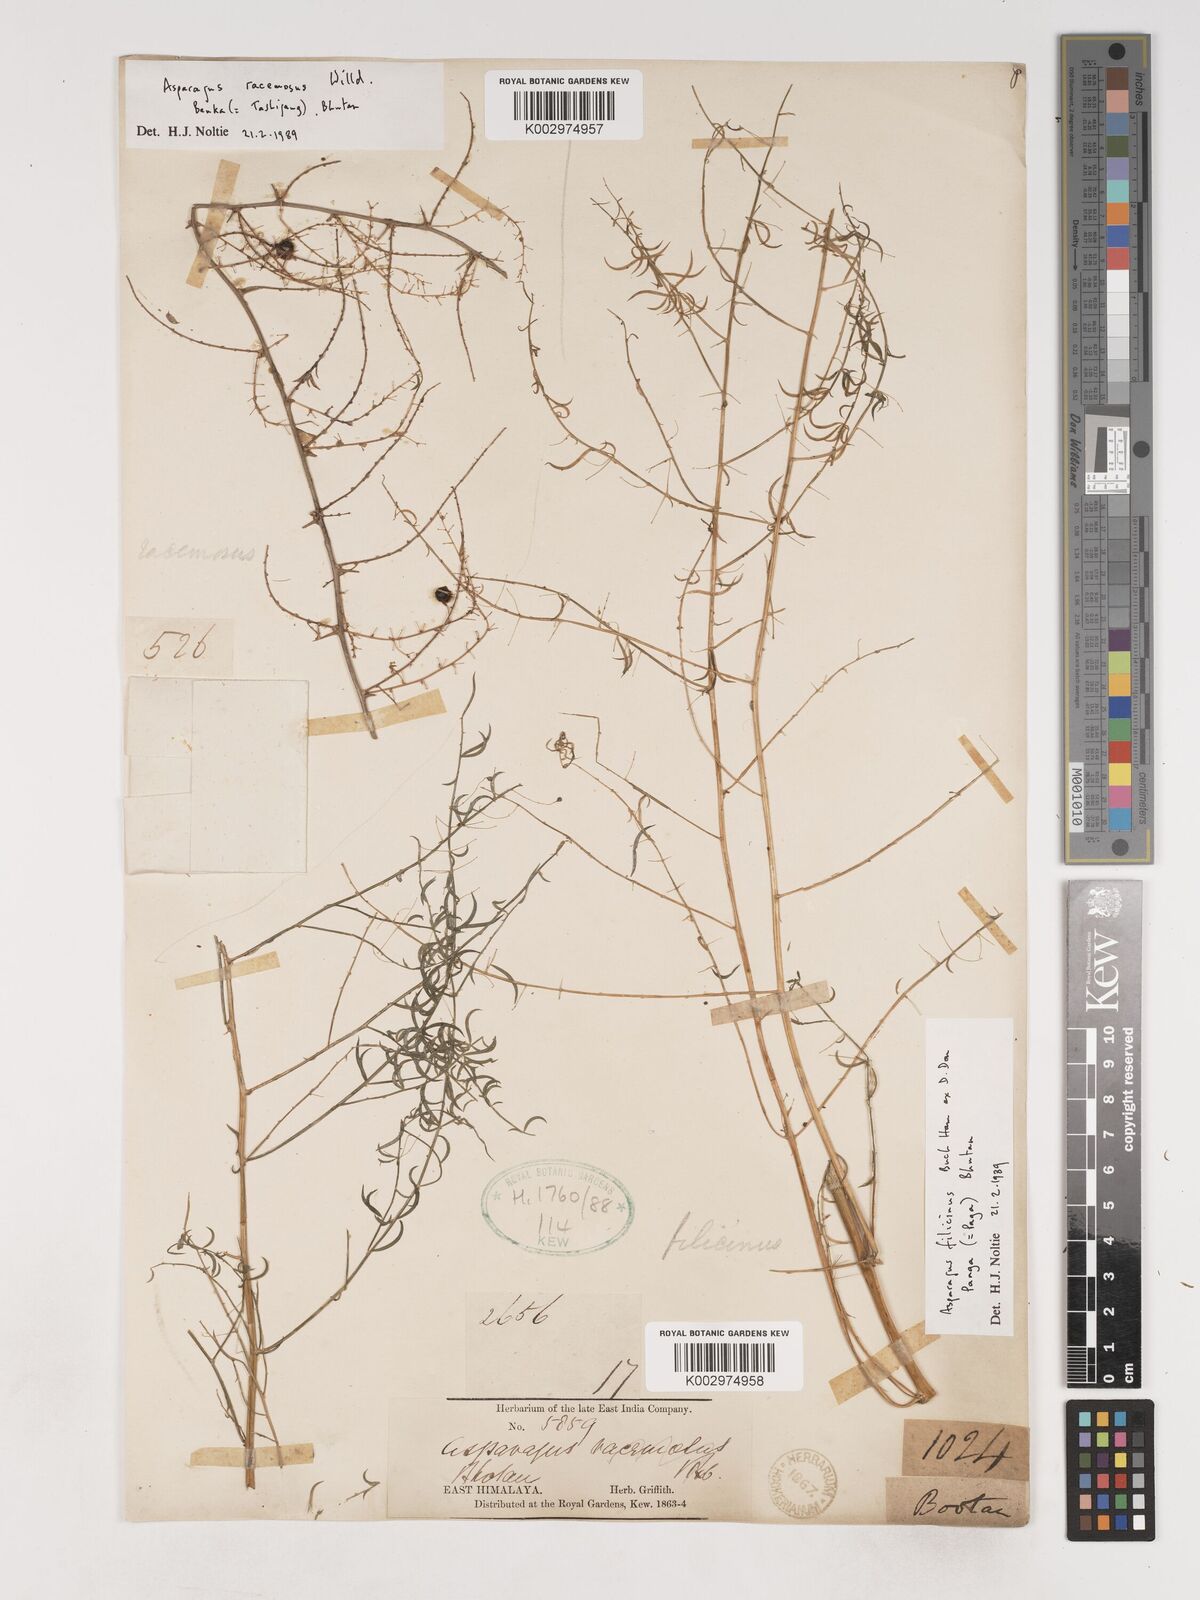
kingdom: Plantae
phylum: Tracheophyta
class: Liliopsida
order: Asparagales
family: Asparagaceae
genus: Asparagus
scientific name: Asparagus filicinus
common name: Fern asparagus
